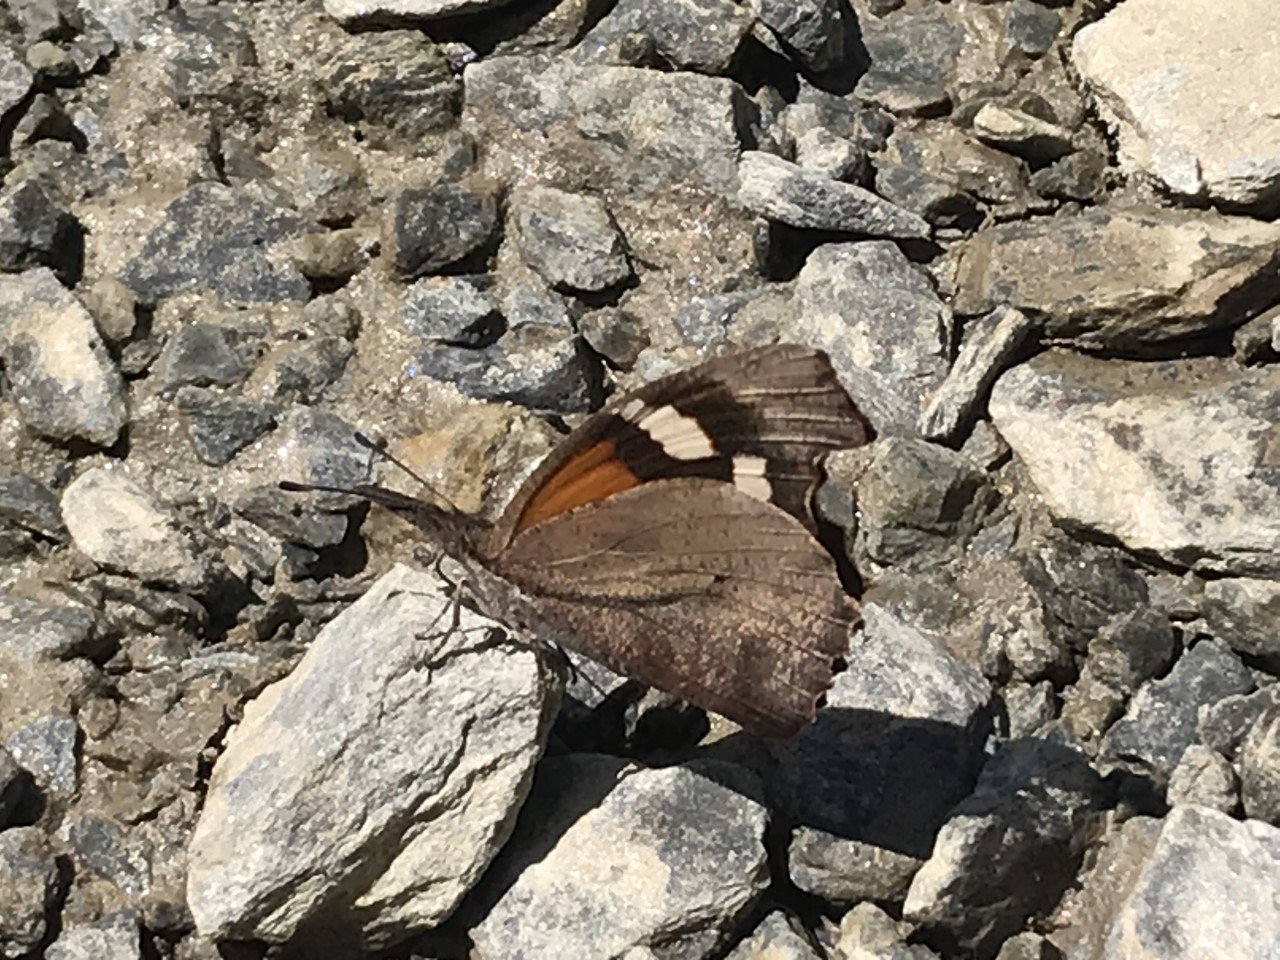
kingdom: Animalia
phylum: Arthropoda
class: Insecta
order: Lepidoptera
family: Nymphalidae
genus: Libytheana
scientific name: Libytheana carinenta
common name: American Snout
